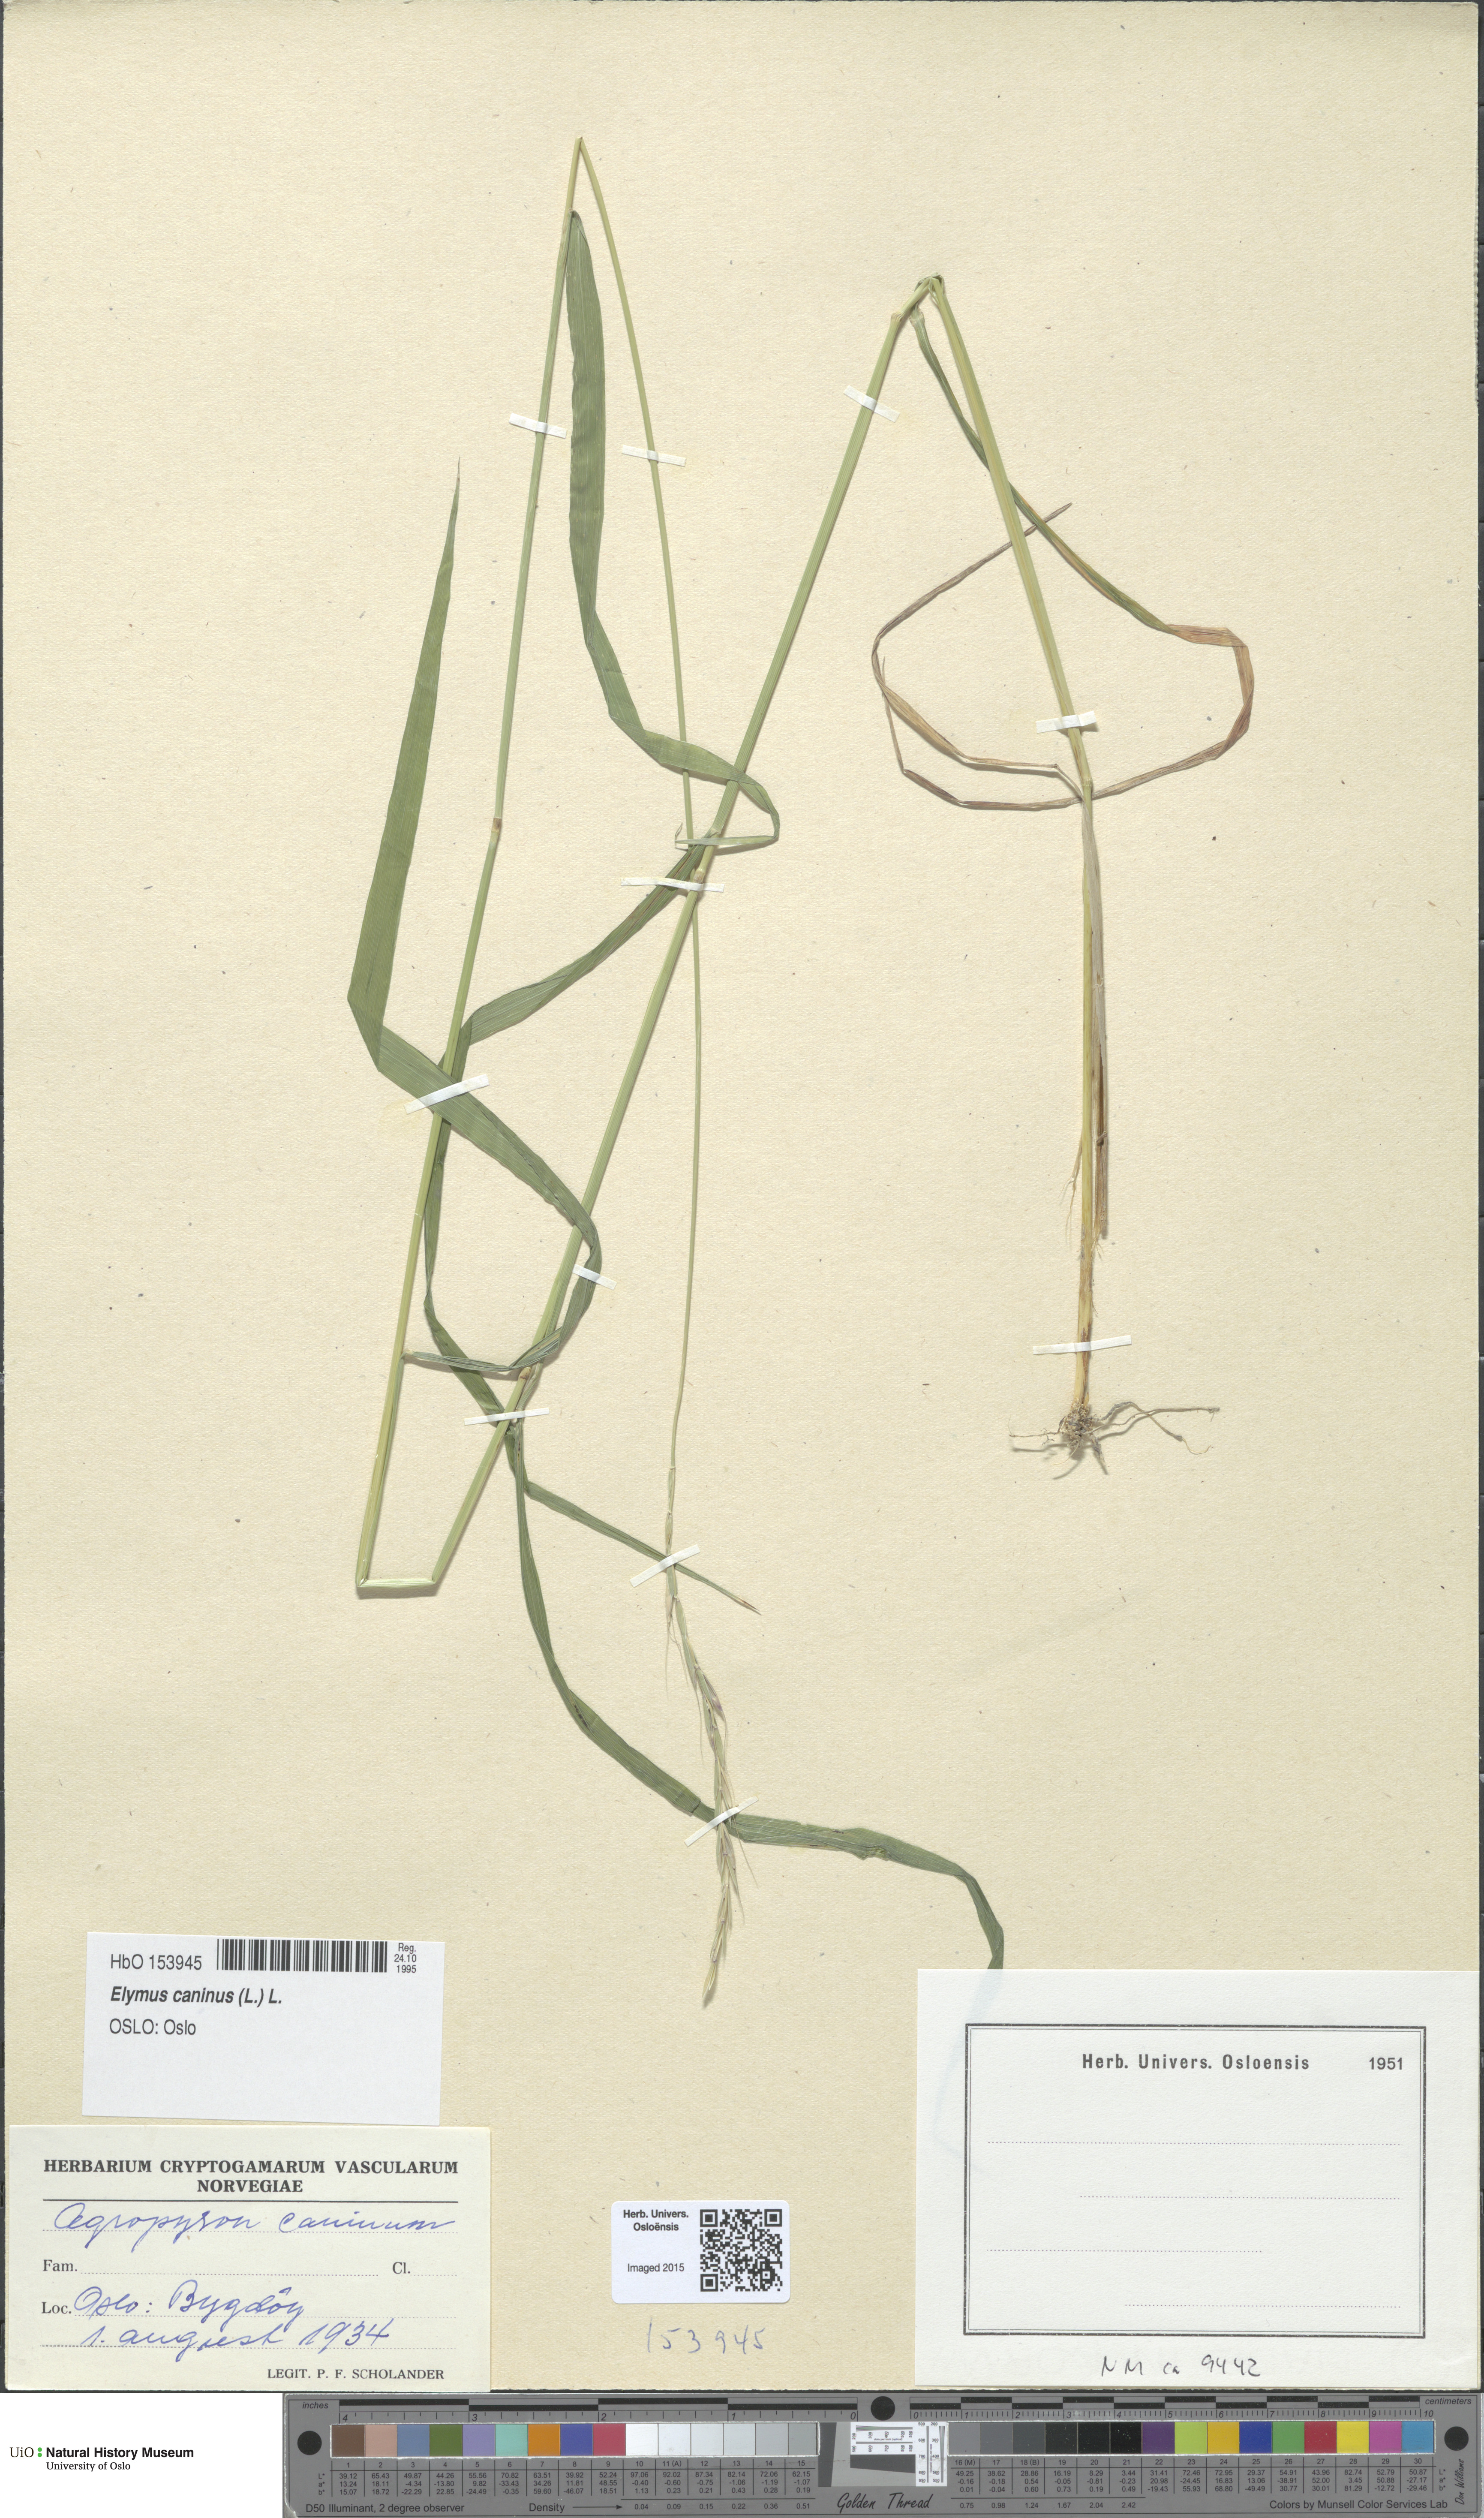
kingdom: Plantae
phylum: Tracheophyta
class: Liliopsida
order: Poales
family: Poaceae
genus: Elymus
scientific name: Elymus caninus
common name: Bearded couch
